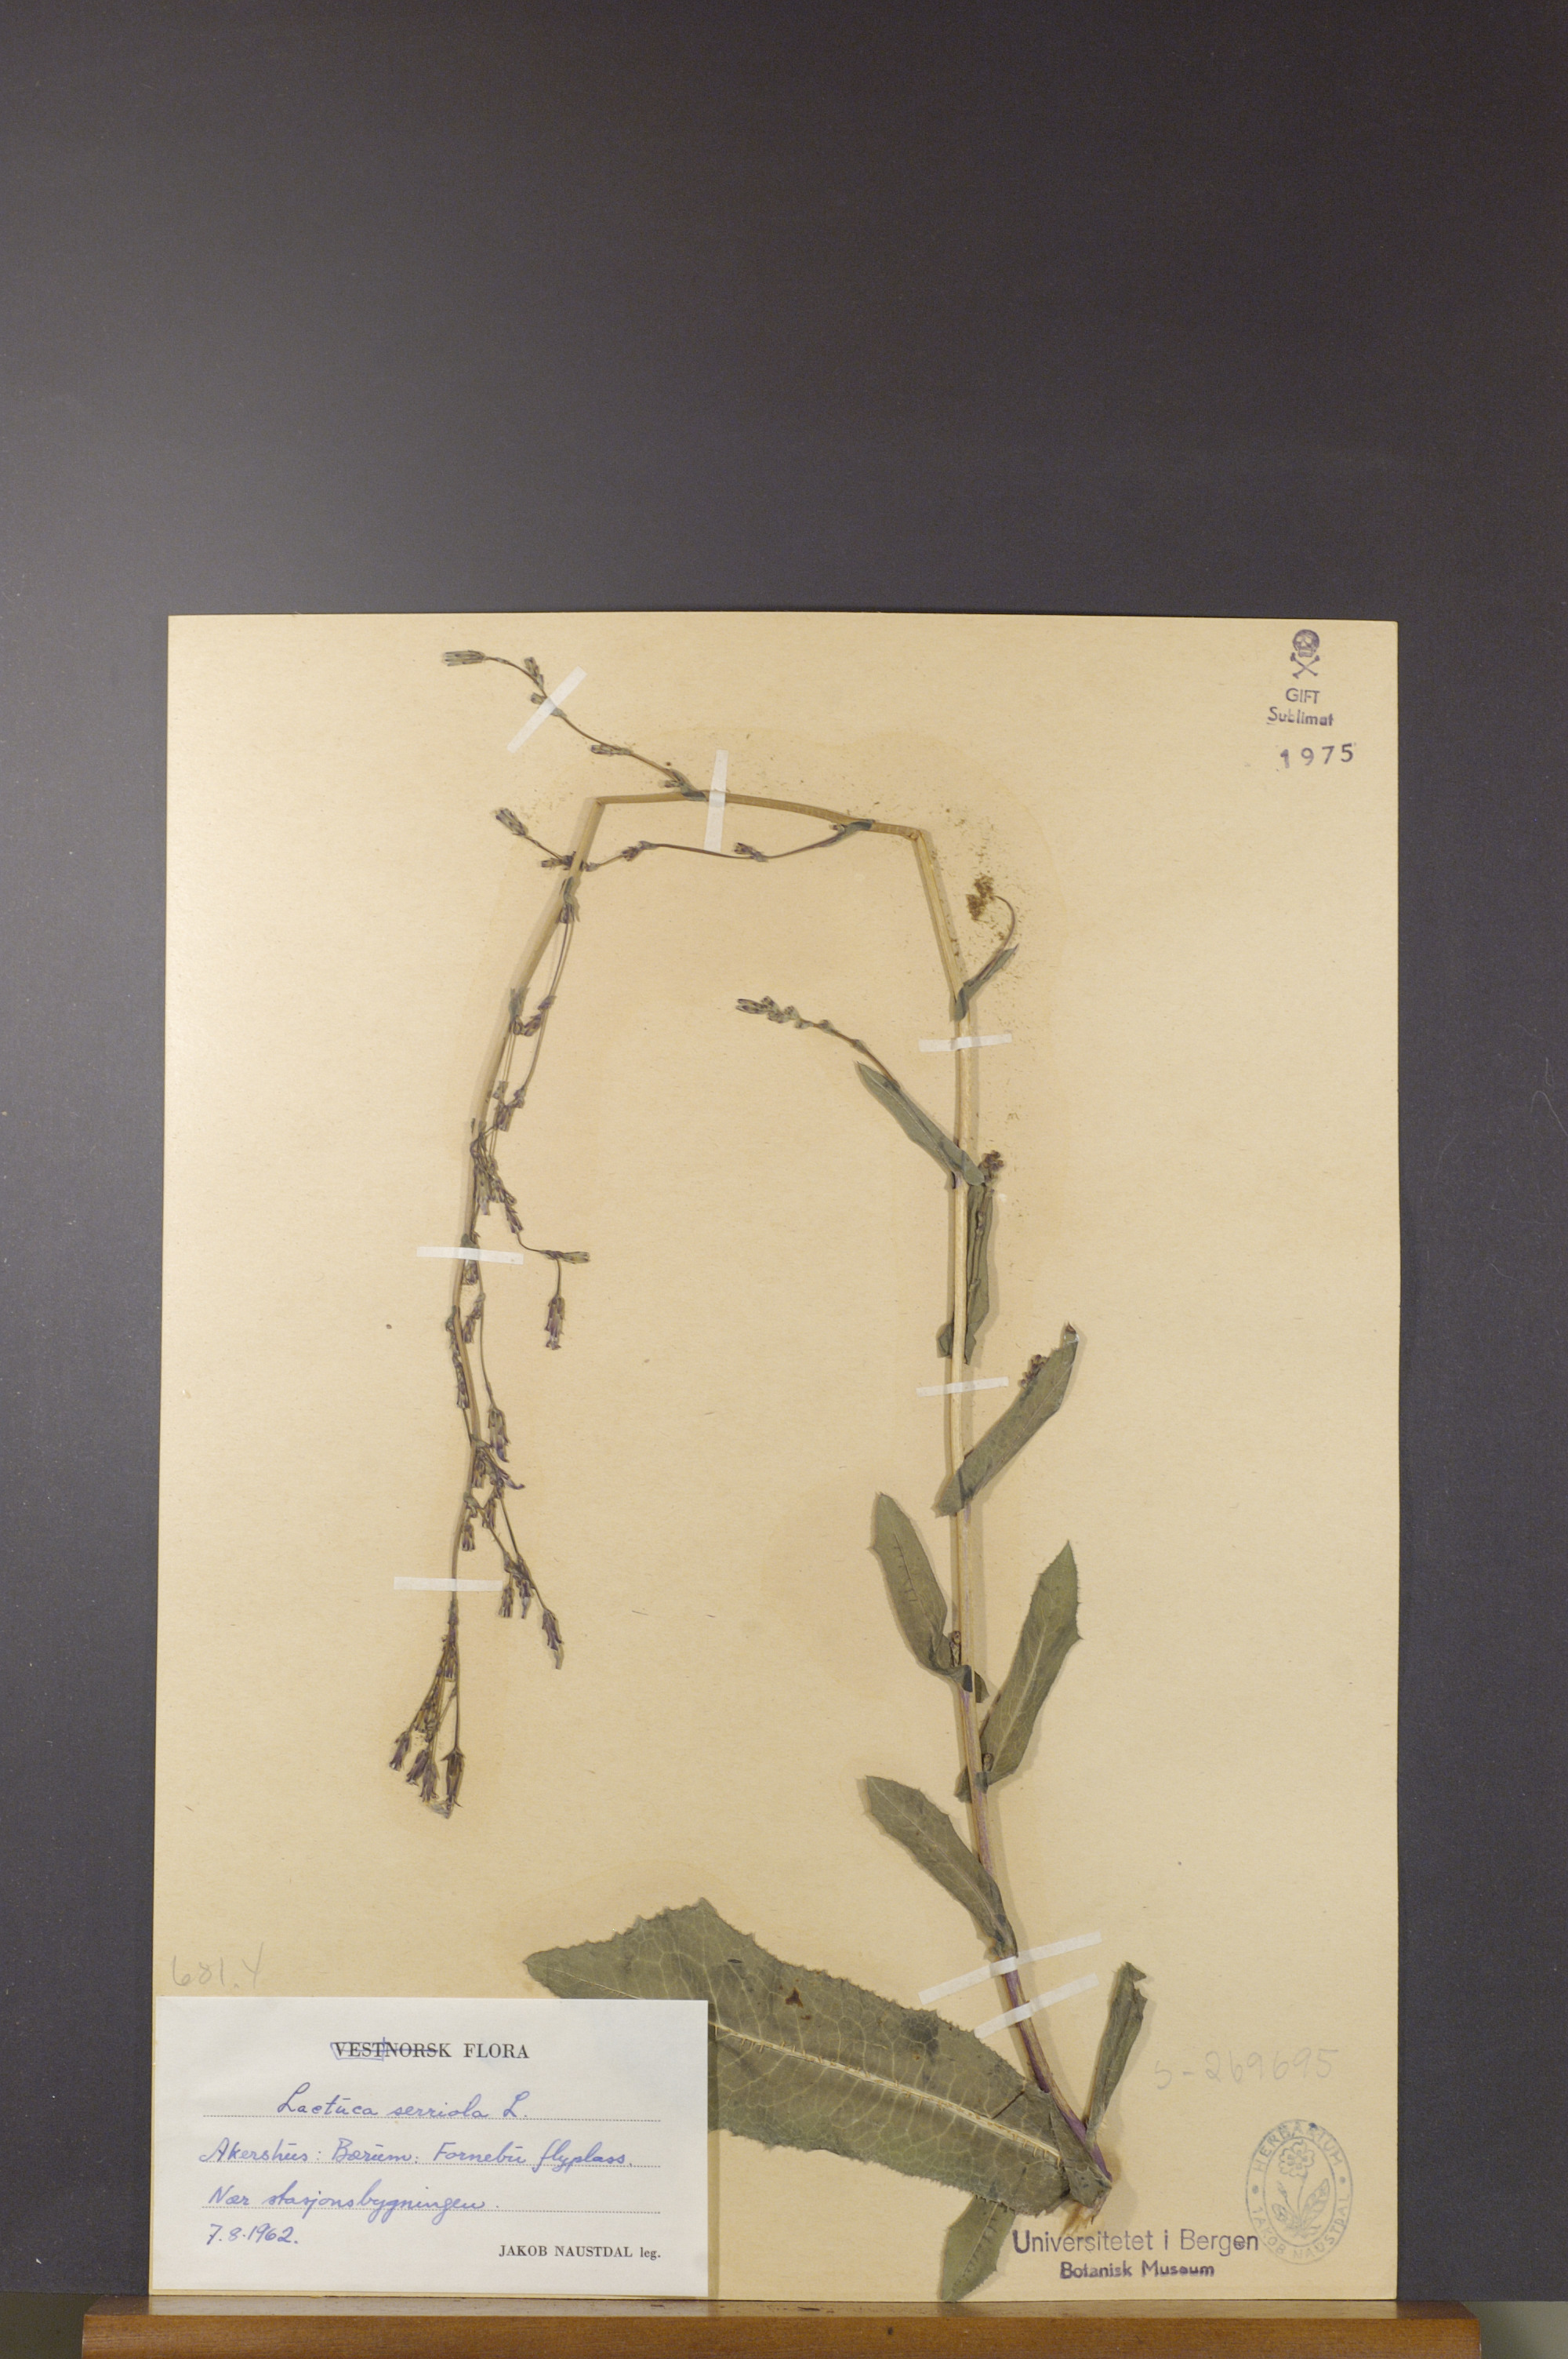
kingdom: Plantae
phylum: Tracheophyta
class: Magnoliopsida
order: Asterales
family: Asteraceae
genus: Lactuca
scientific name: Lactuca serriola
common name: Prickly lettuce
